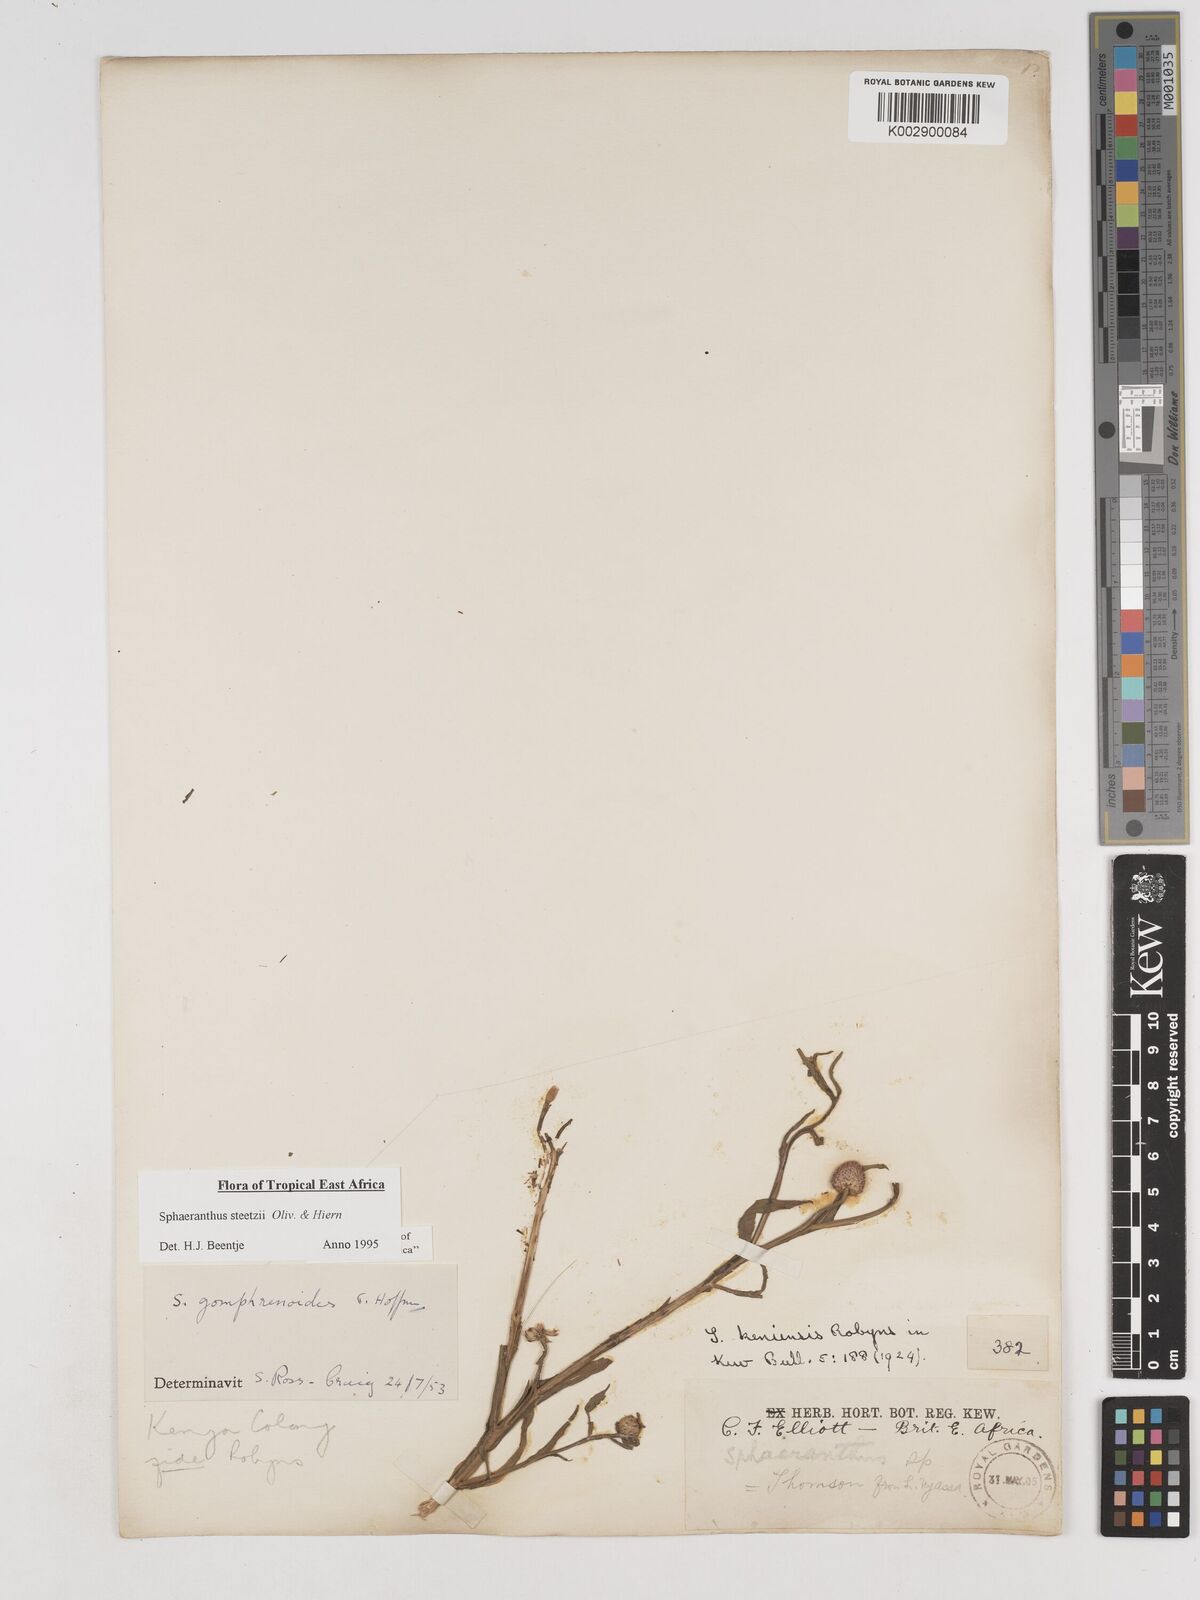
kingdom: Plantae
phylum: Tracheophyta
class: Magnoliopsida
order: Asterales
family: Asteraceae
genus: Sphaeranthus
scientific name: Sphaeranthus steetzii
